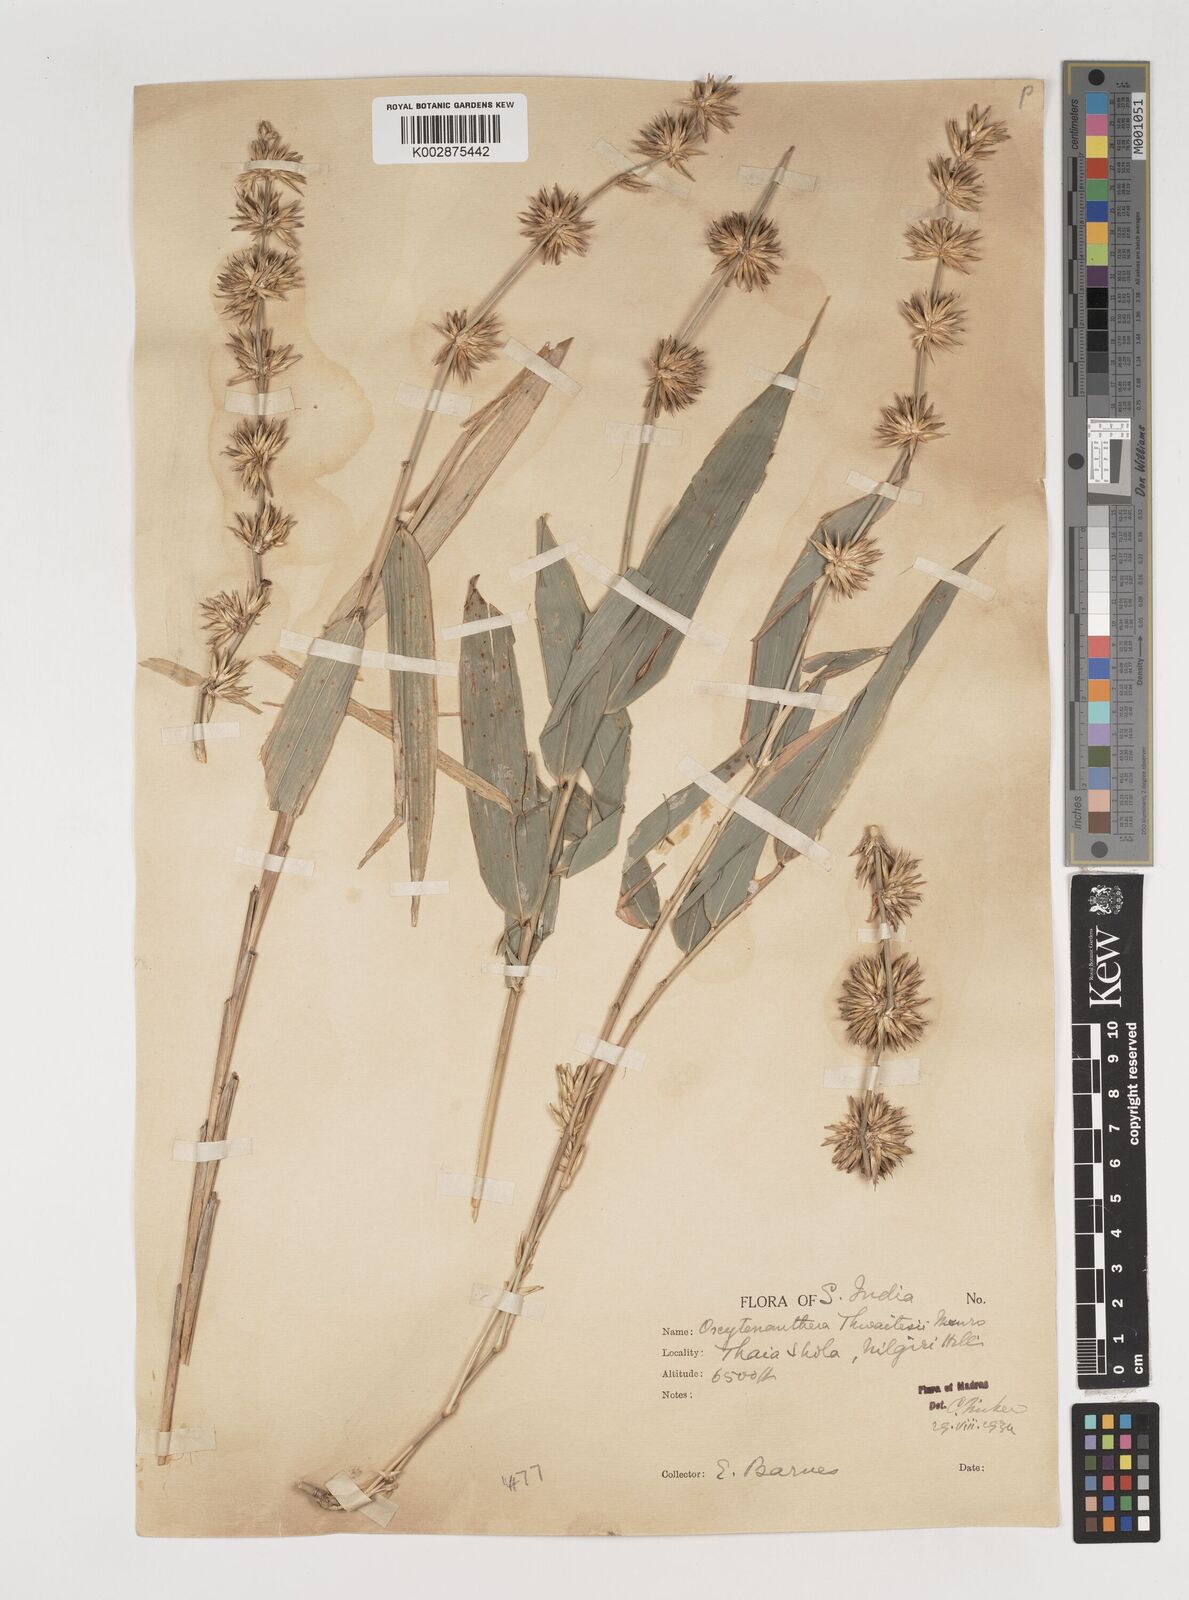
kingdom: Plantae
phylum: Tracheophyta
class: Liliopsida
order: Poales
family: Poaceae
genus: Pseudoxytenanthera
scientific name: Pseudoxytenanthera monadelpha
